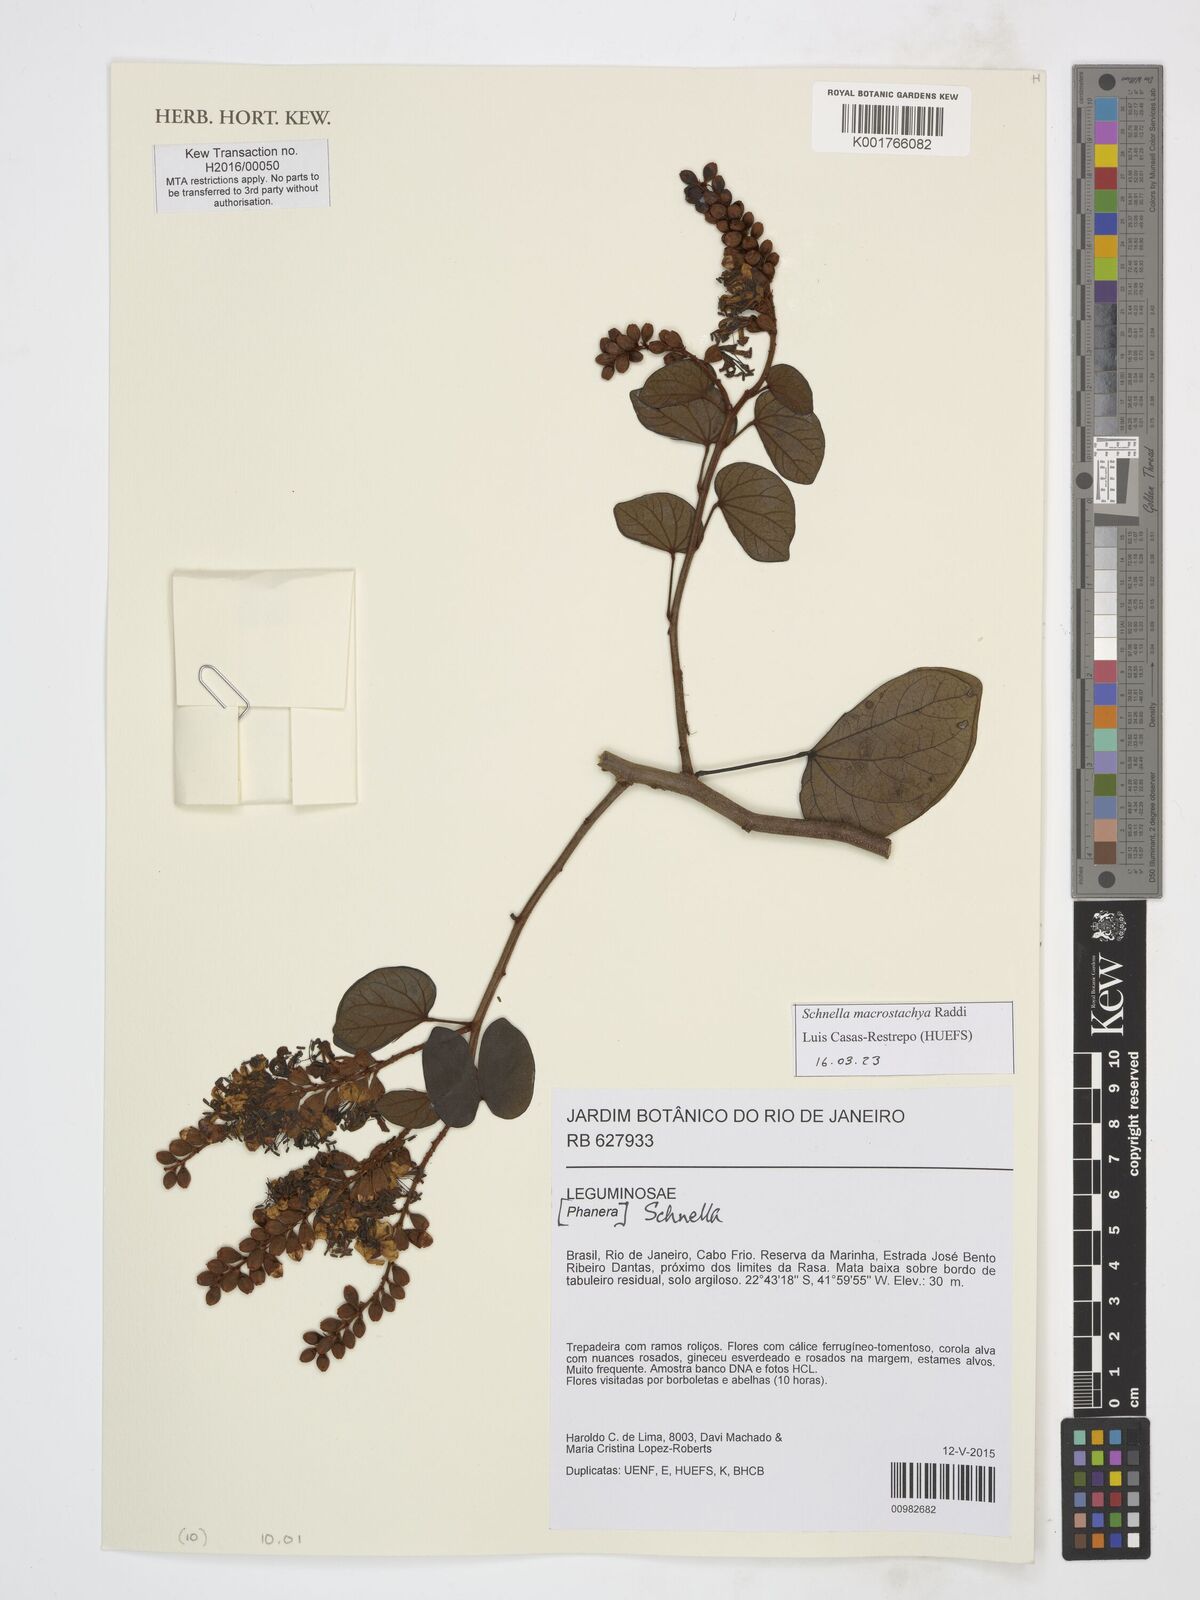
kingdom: Plantae
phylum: Tracheophyta
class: Magnoliopsida
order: Fabales
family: Fabaceae
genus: Schnella
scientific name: Schnella macrostachya
